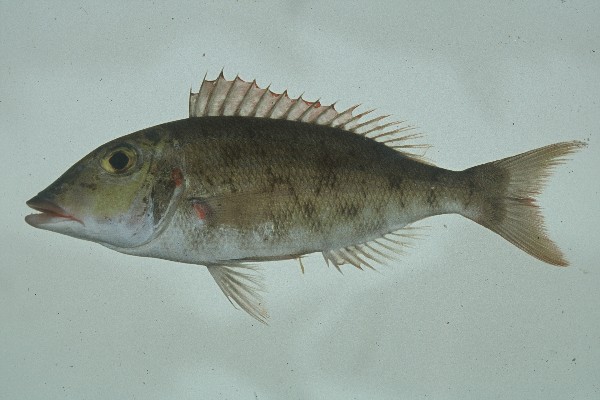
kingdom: Animalia
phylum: Chordata
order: Perciformes
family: Lethrinidae
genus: Lethrinus
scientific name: Lethrinus rubrioperculatus
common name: Spotcheek emperor
